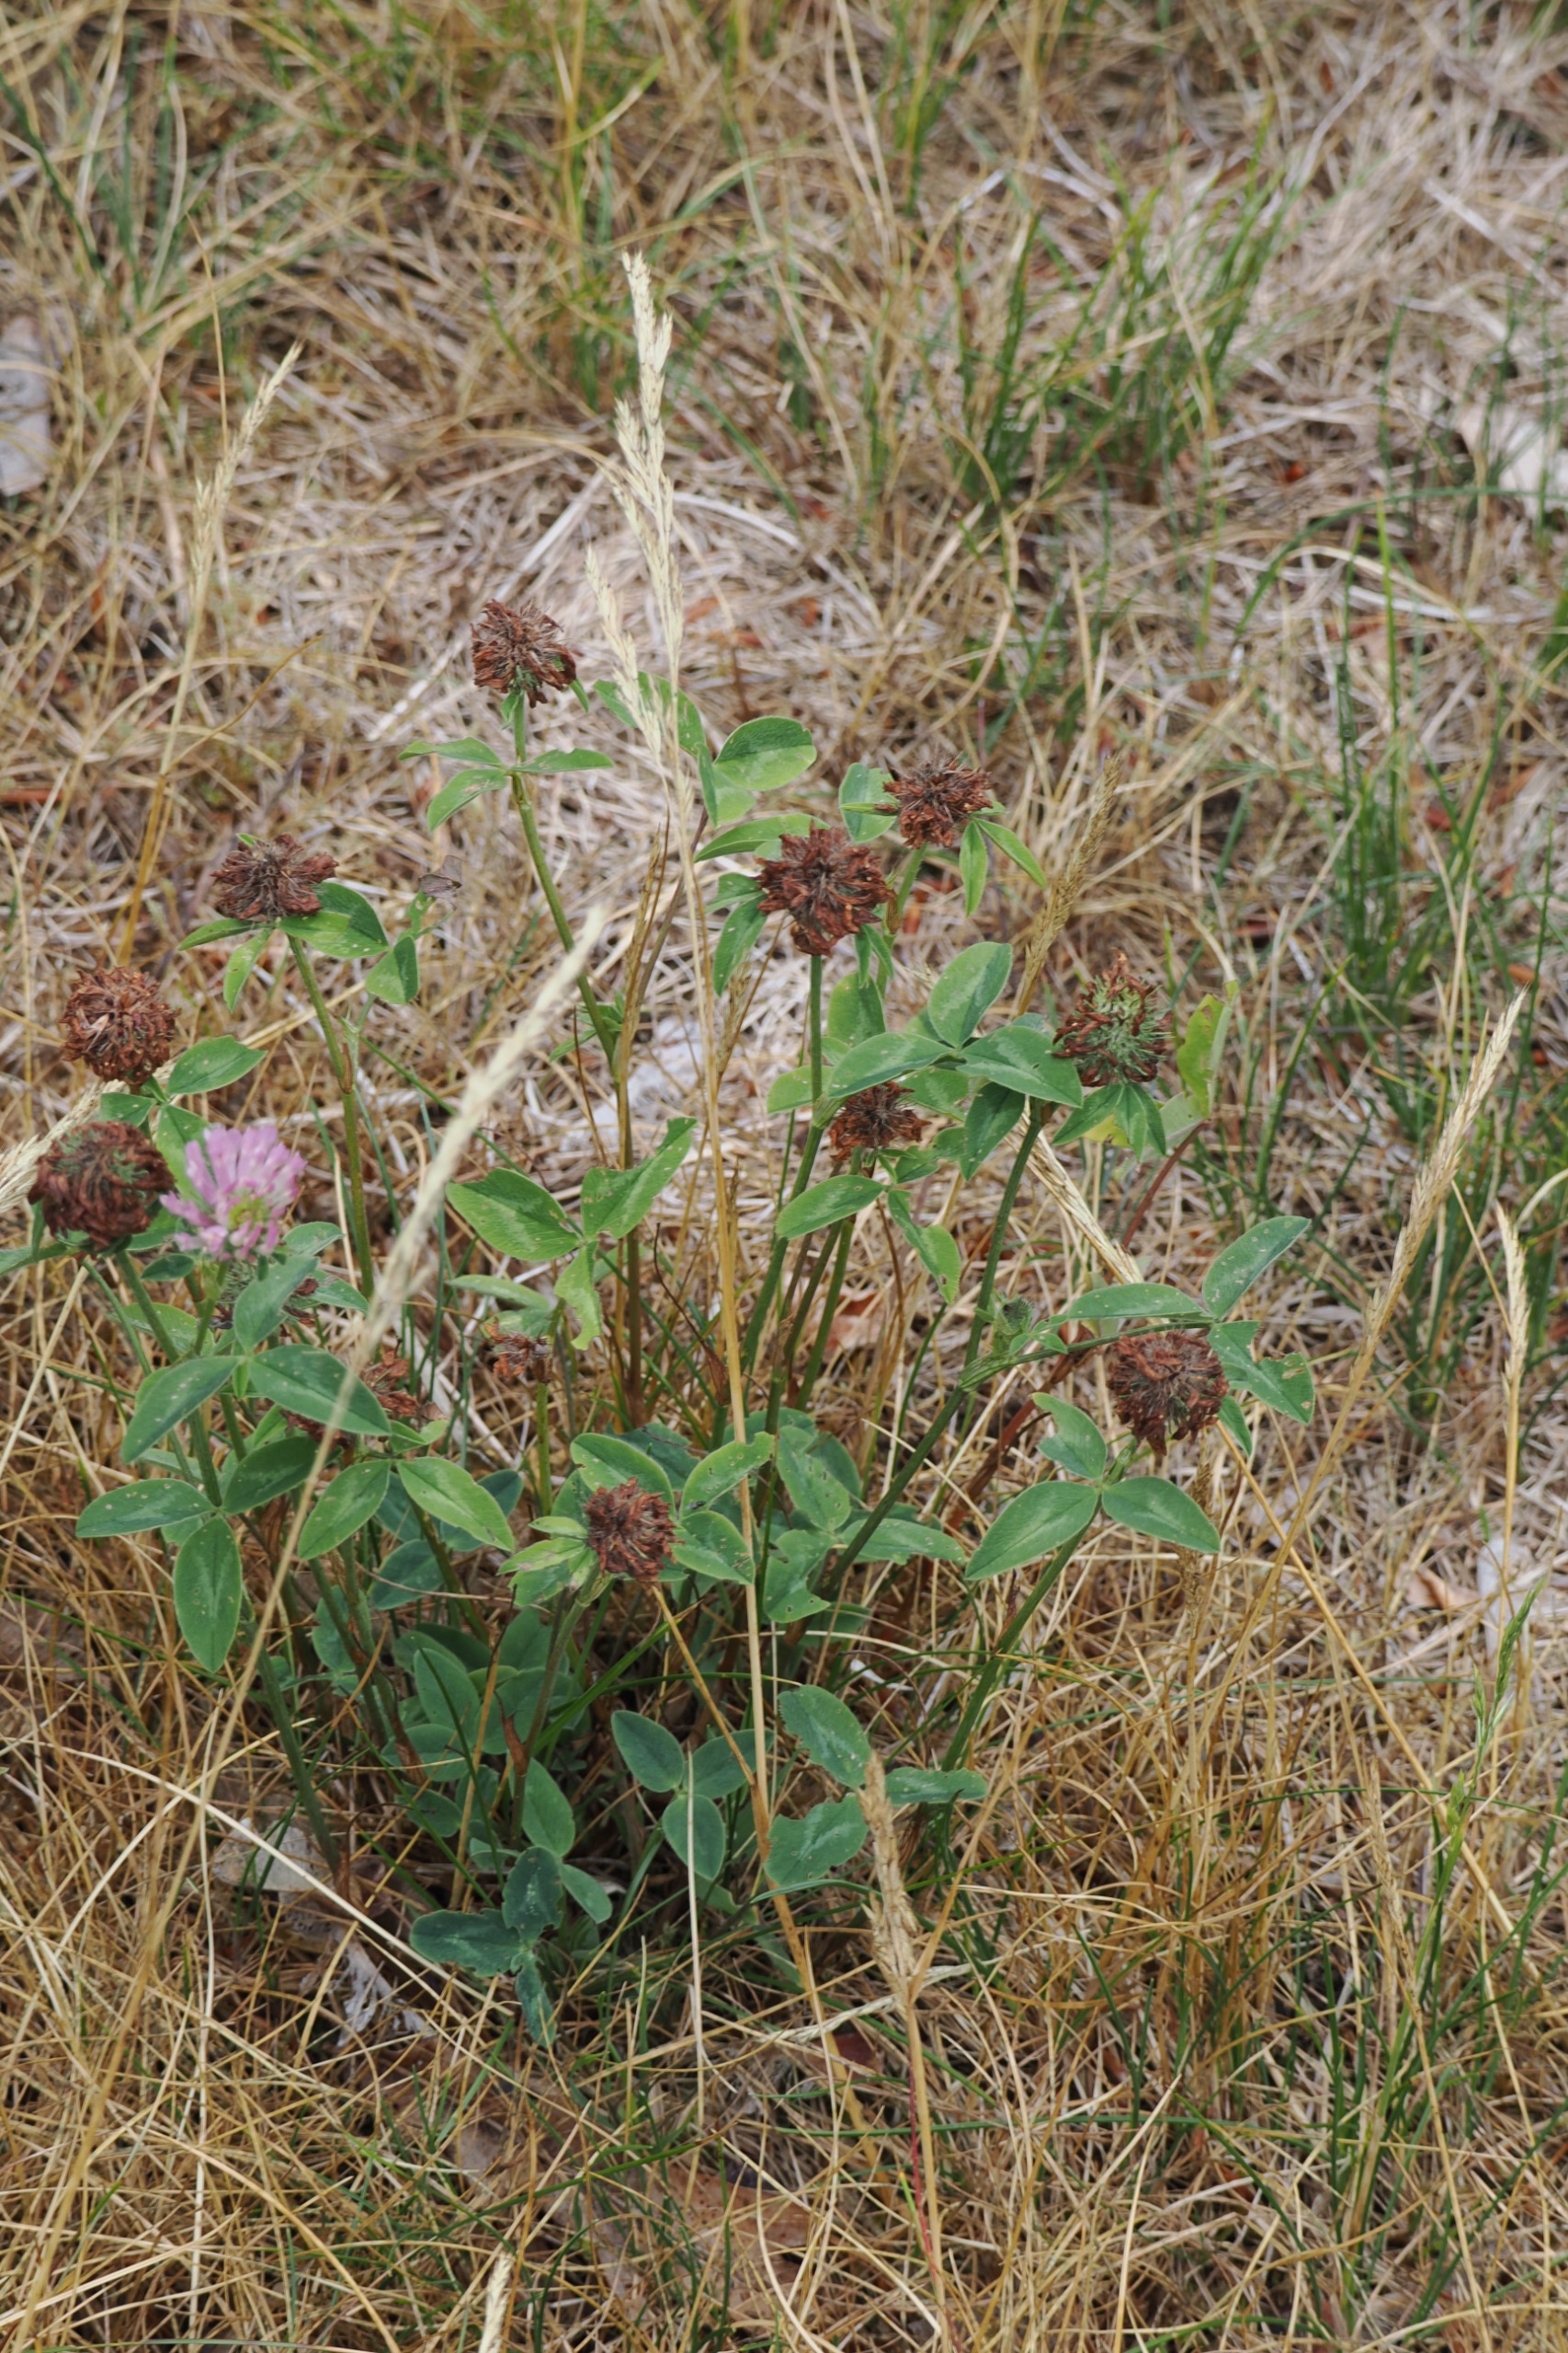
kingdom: Plantae
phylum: Tracheophyta
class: Magnoliopsida
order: Fabales
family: Fabaceae
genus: Trifolium
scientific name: Trifolium pratense
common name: Rød-kløver
